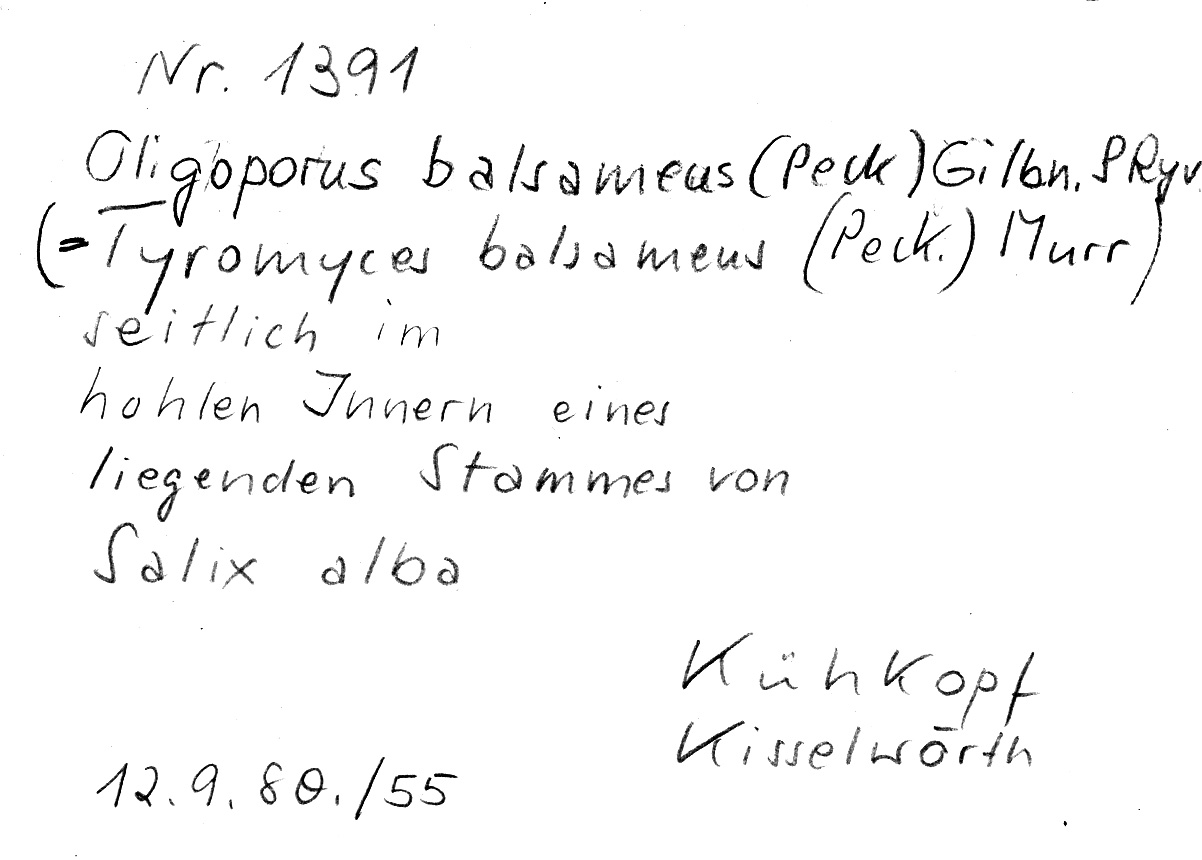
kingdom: Plantae
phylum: Tracheophyta
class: Magnoliopsida
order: Malpighiales
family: Salicaceae
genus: Salix
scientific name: Salix alba
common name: White willow
